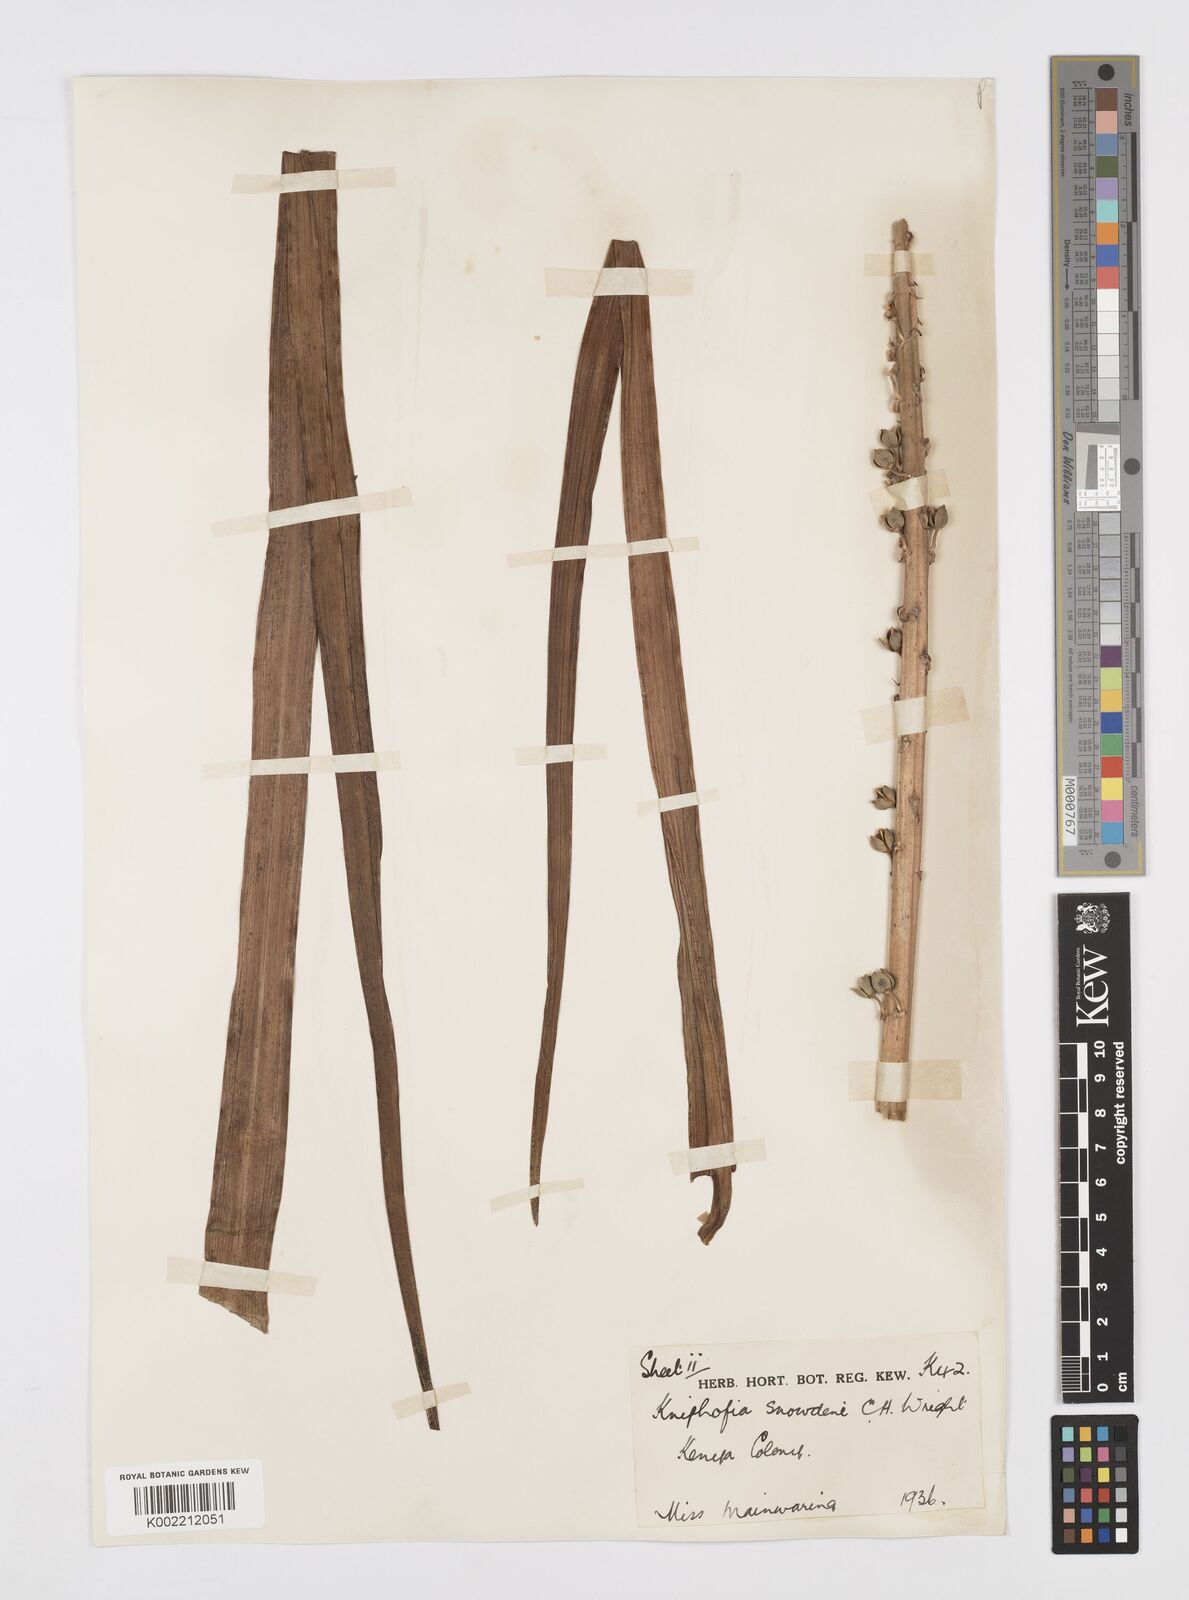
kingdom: Plantae
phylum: Tracheophyta
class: Liliopsida
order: Asparagales
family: Asphodelaceae
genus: Kniphofia
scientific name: Kniphofia
